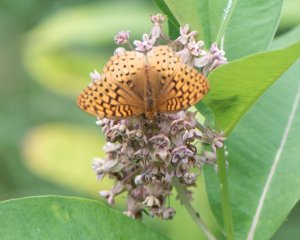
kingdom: Animalia
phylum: Arthropoda
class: Insecta
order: Lepidoptera
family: Nymphalidae
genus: Speyeria
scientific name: Speyeria cybele
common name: Great Spangled Fritillary
